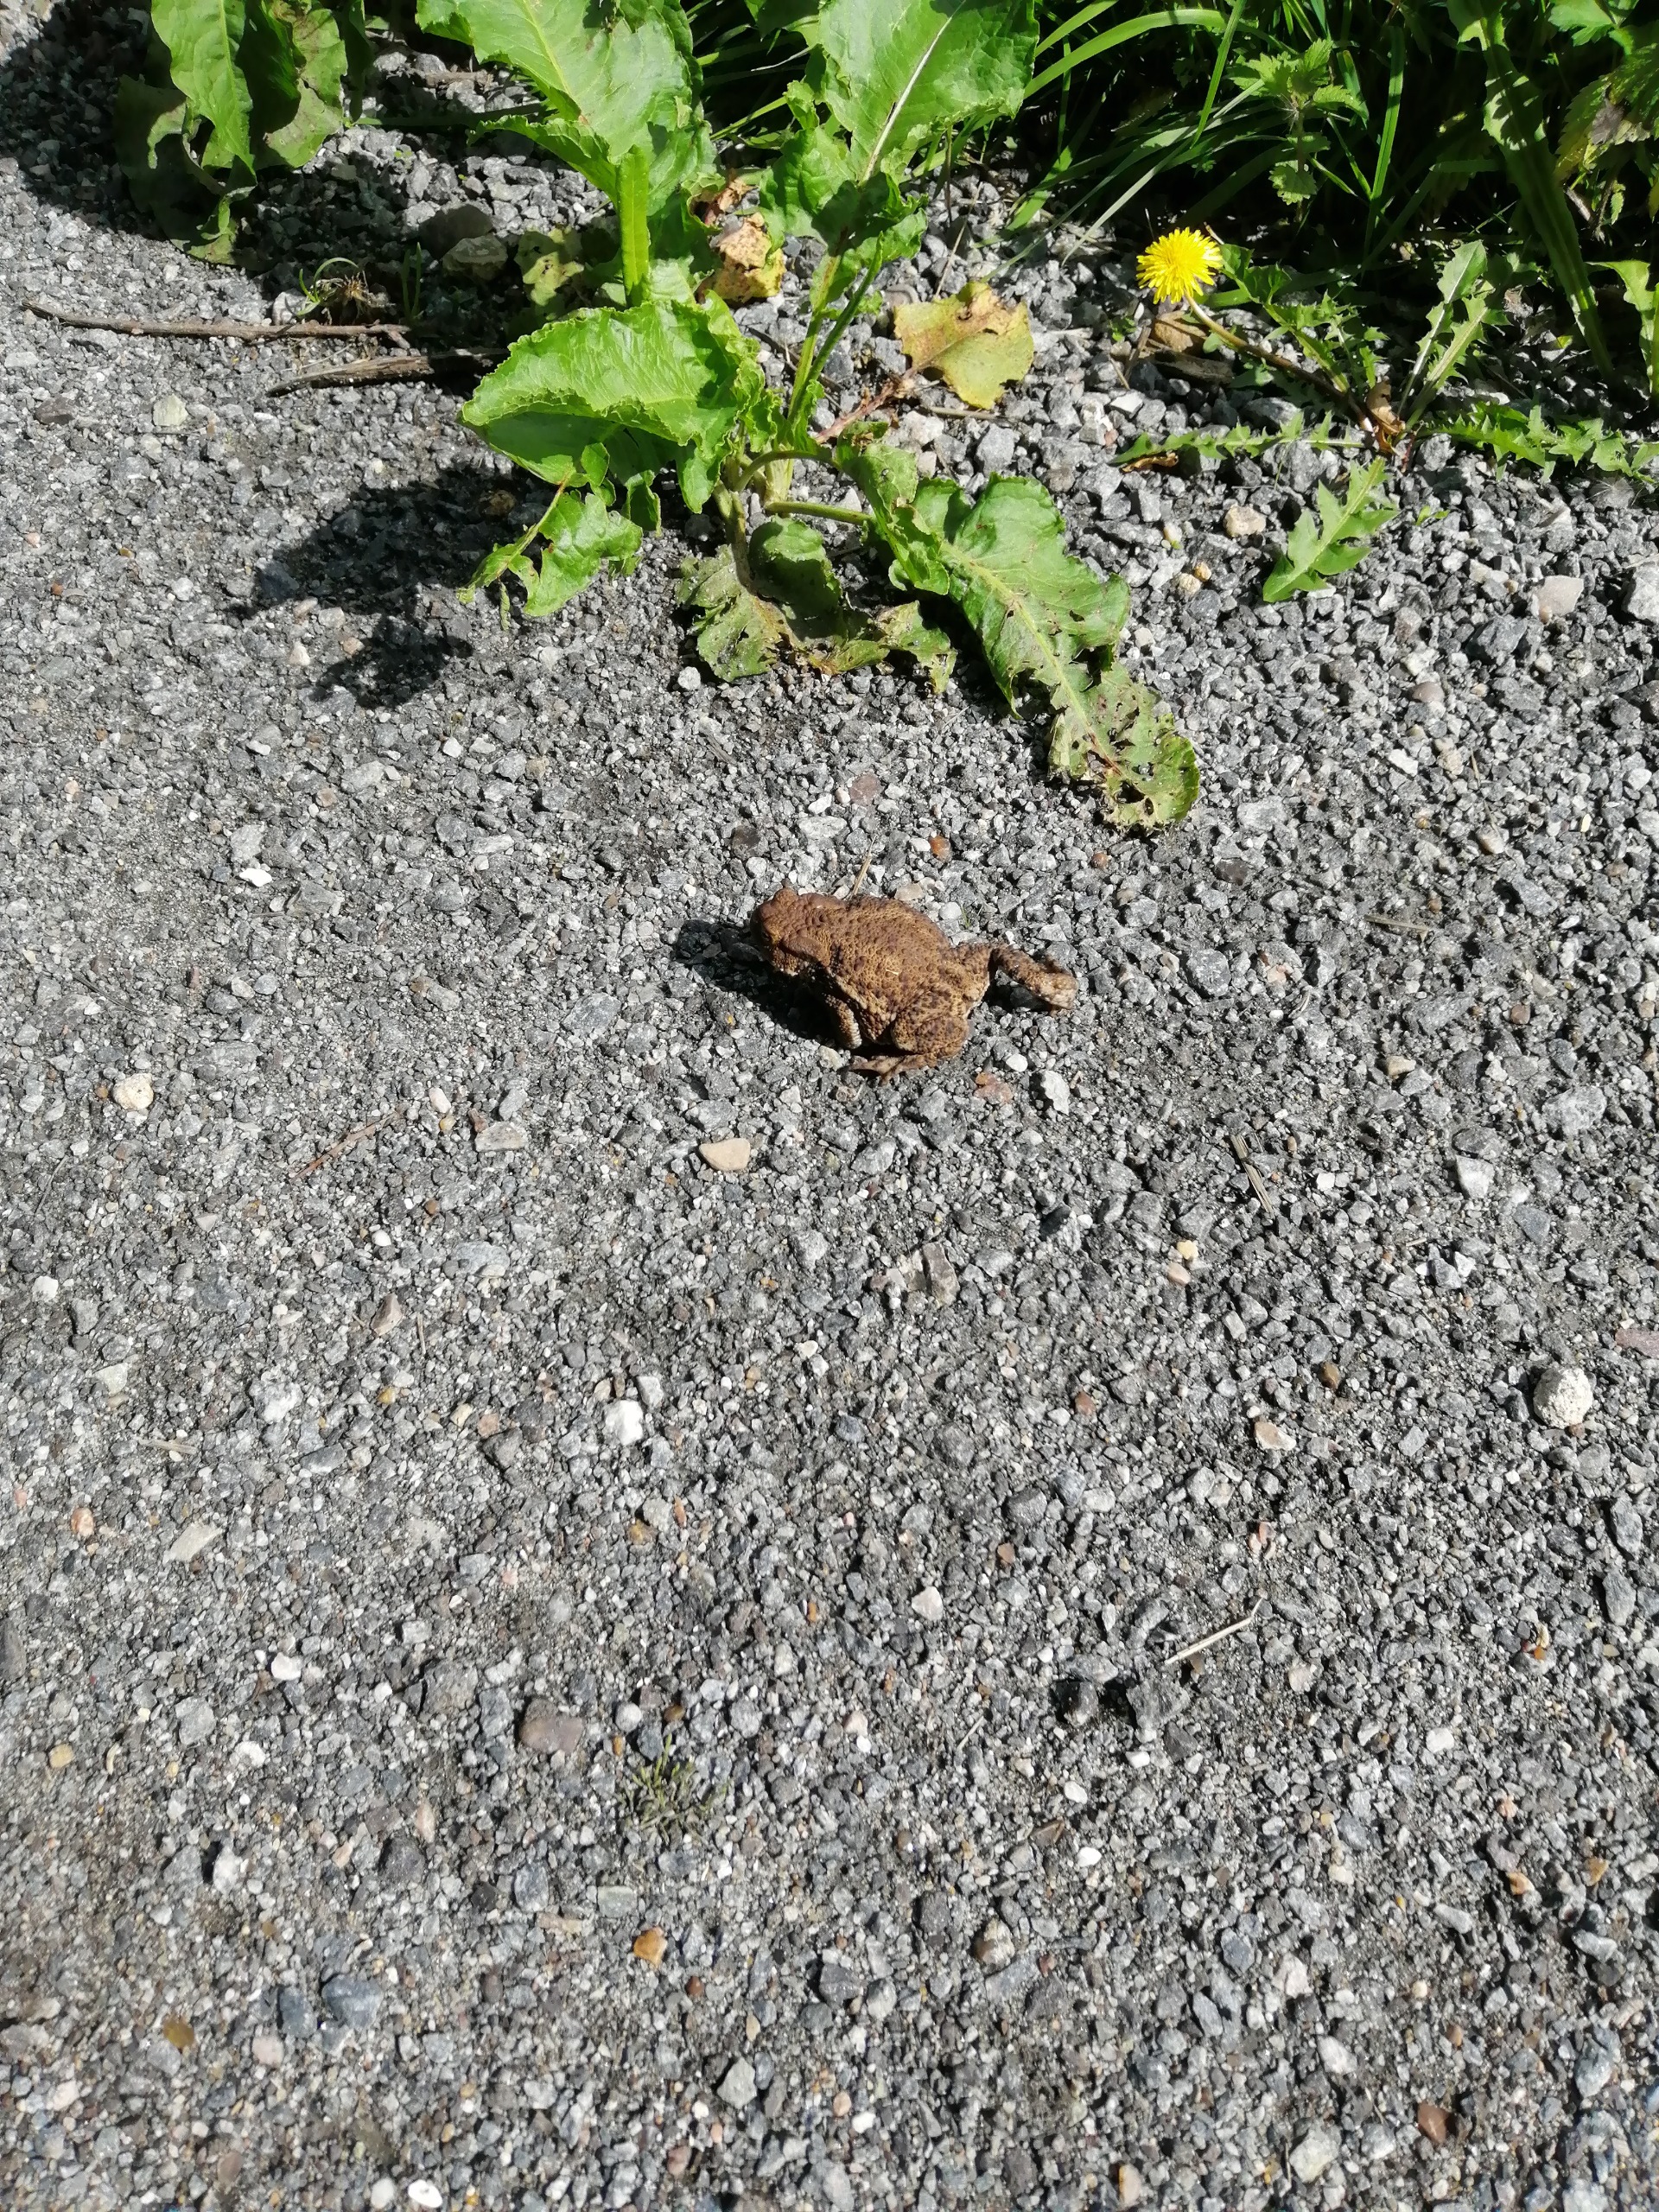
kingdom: Animalia
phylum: Chordata
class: Amphibia
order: Anura
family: Bufonidae
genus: Bufo
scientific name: Bufo bufo
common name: Skrubtudse
